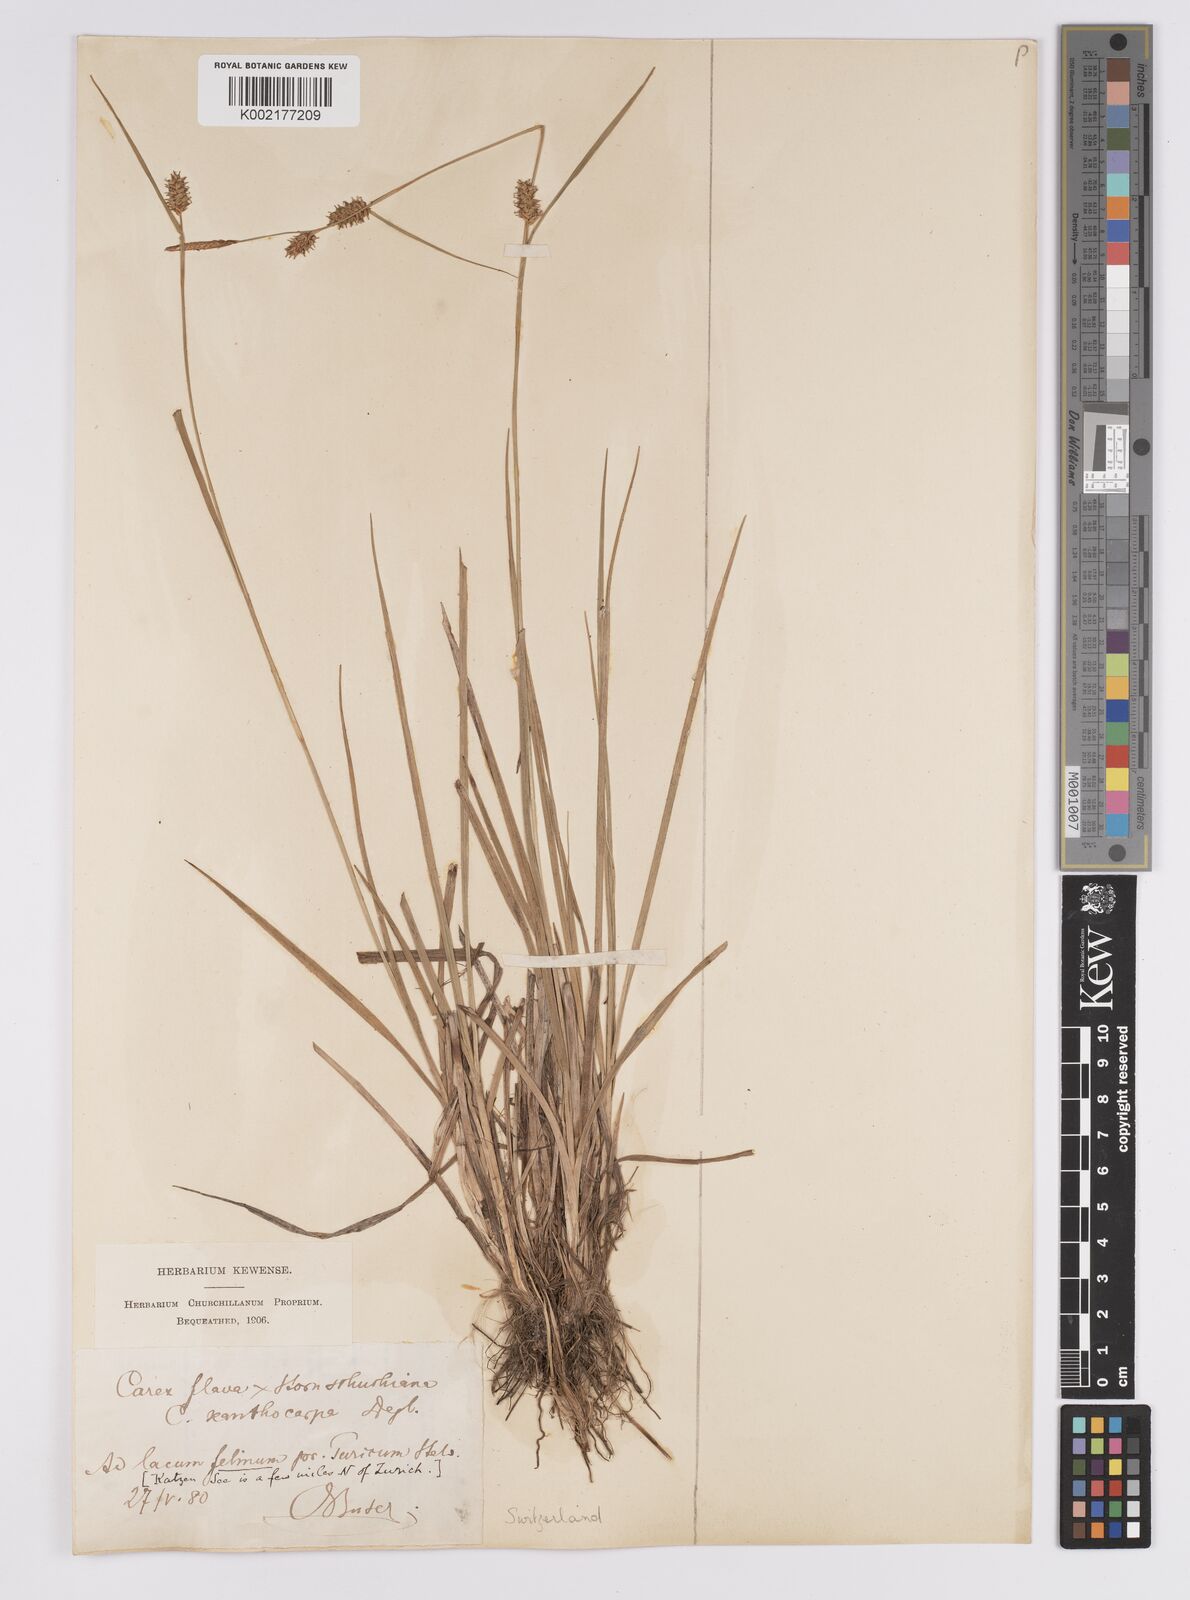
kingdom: Plantae
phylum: Tracheophyta
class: Liliopsida
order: Poales
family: Cyperaceae
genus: Carex
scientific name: Carex hostiana
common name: Tawny sedge
